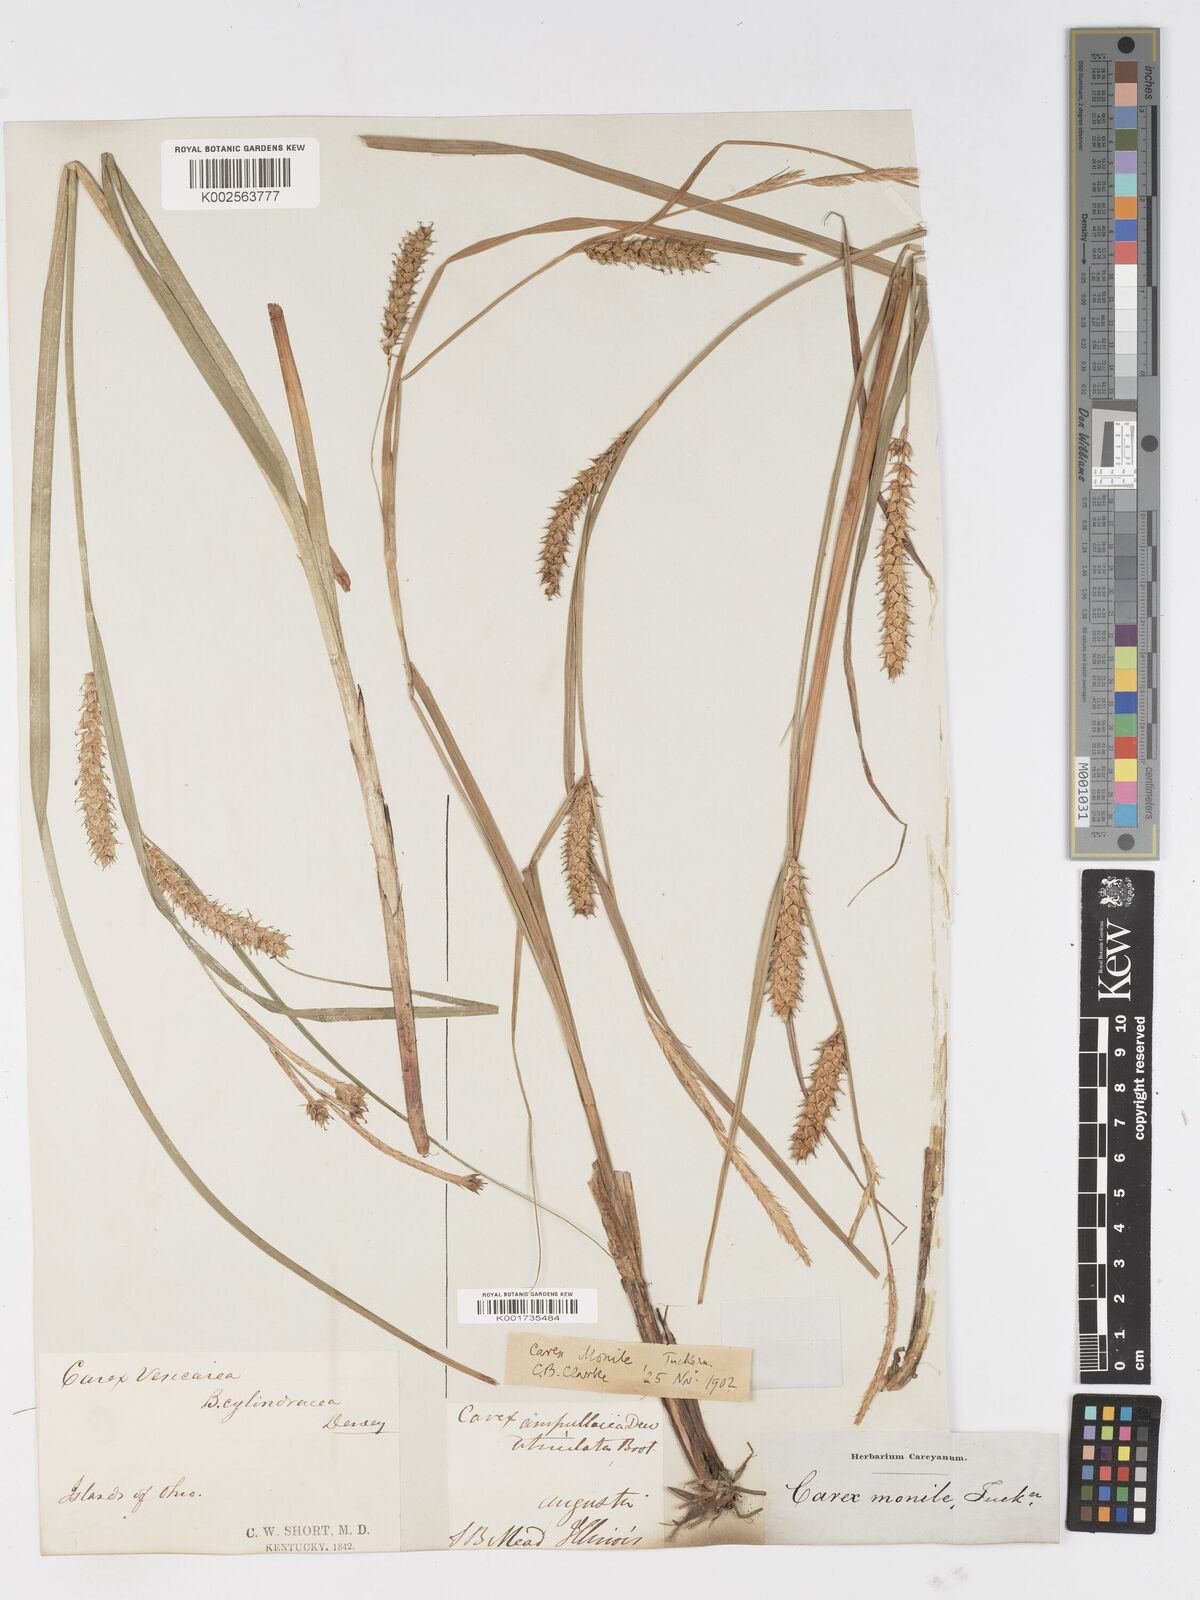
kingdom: Plantae
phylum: Tracheophyta
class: Liliopsida
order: Poales
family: Cyperaceae
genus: Carex
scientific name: Carex vesicaria
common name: Bladder-sedge
